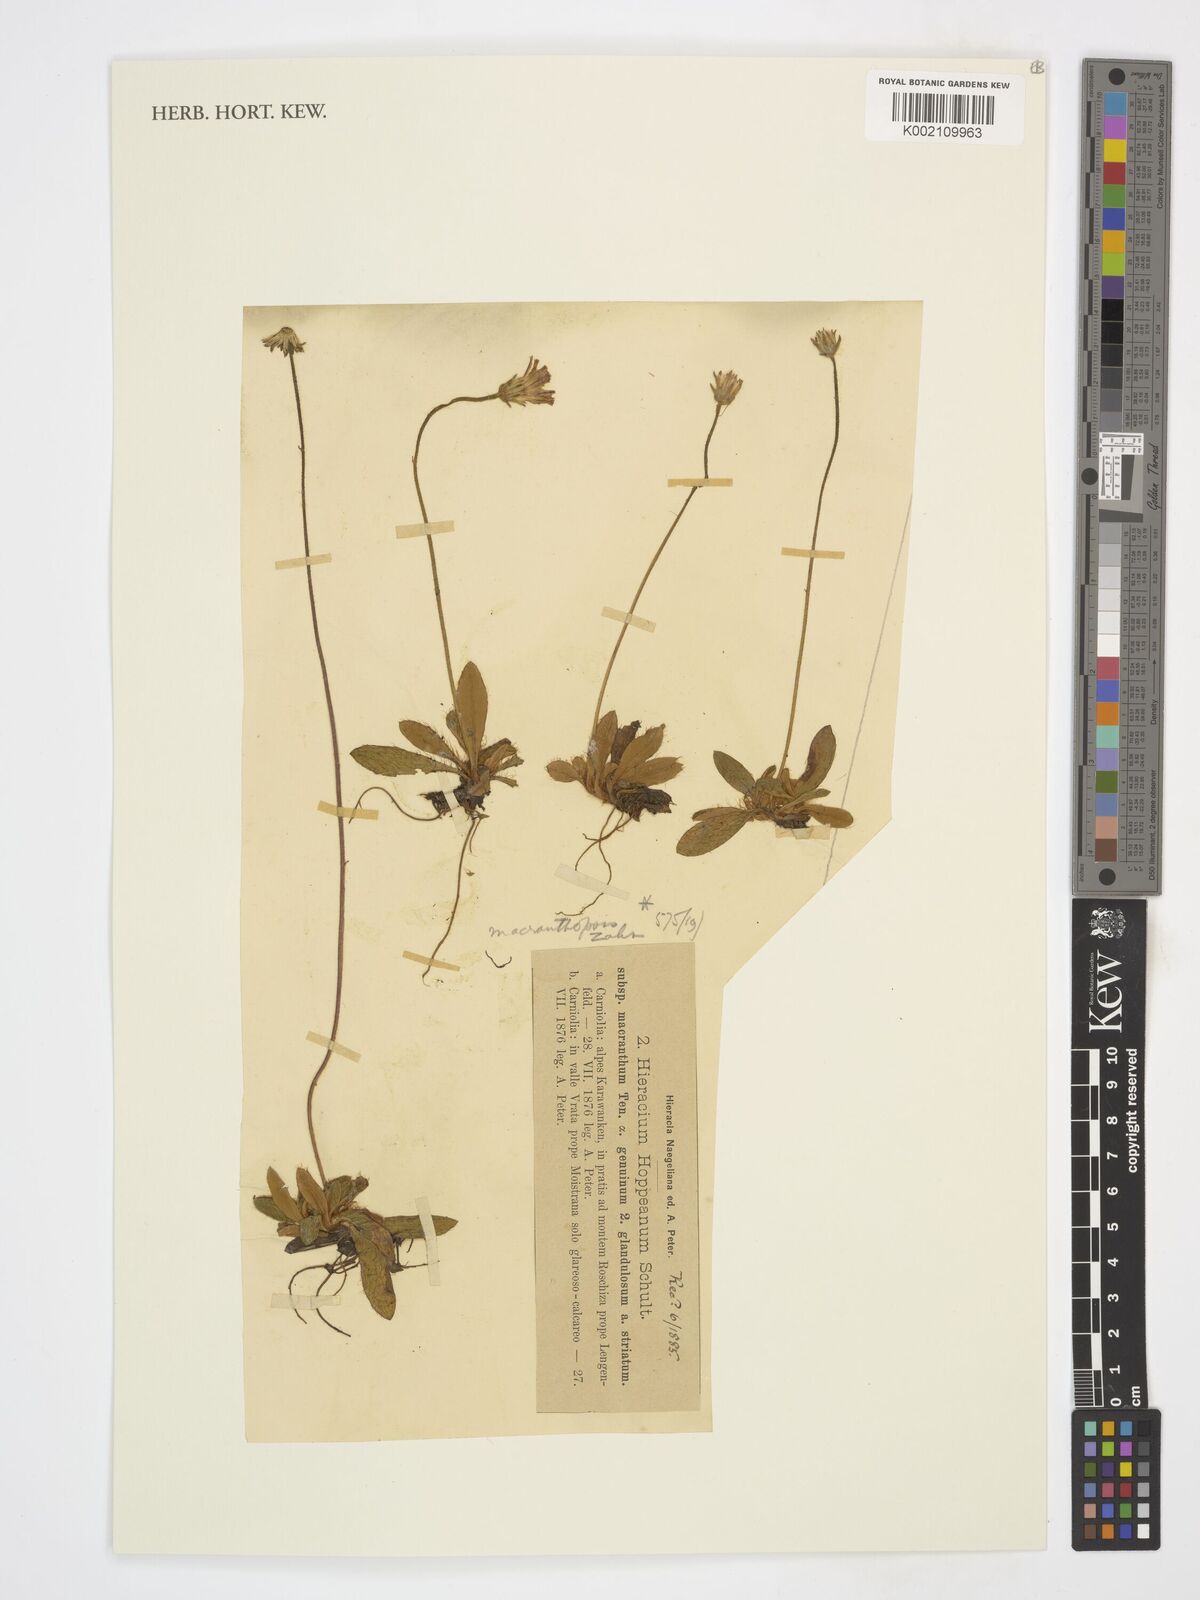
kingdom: Plantae
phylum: Tracheophyta
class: Magnoliopsida
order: Asterales
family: Asteraceae
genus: Pilosella
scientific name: Pilosella hoppeana
